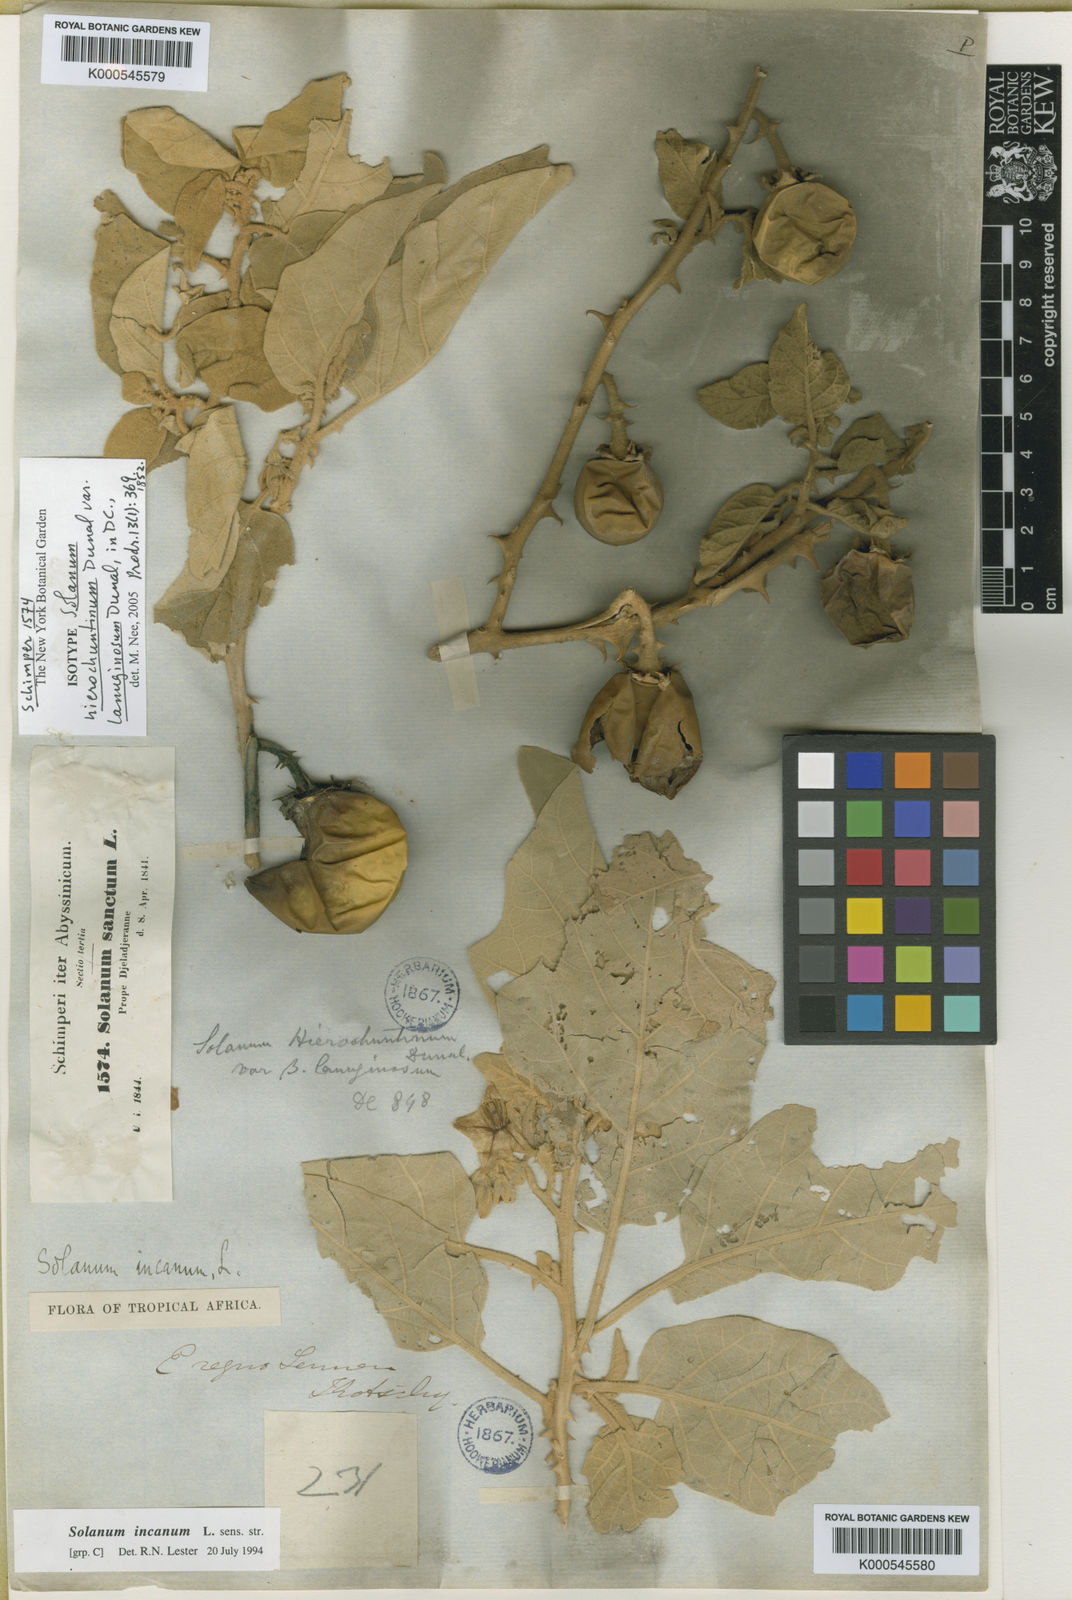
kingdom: Plantae
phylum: Tracheophyta
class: Magnoliopsida
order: Solanales
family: Solanaceae
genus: Solanum
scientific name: Solanum incanum
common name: Bitter apple
